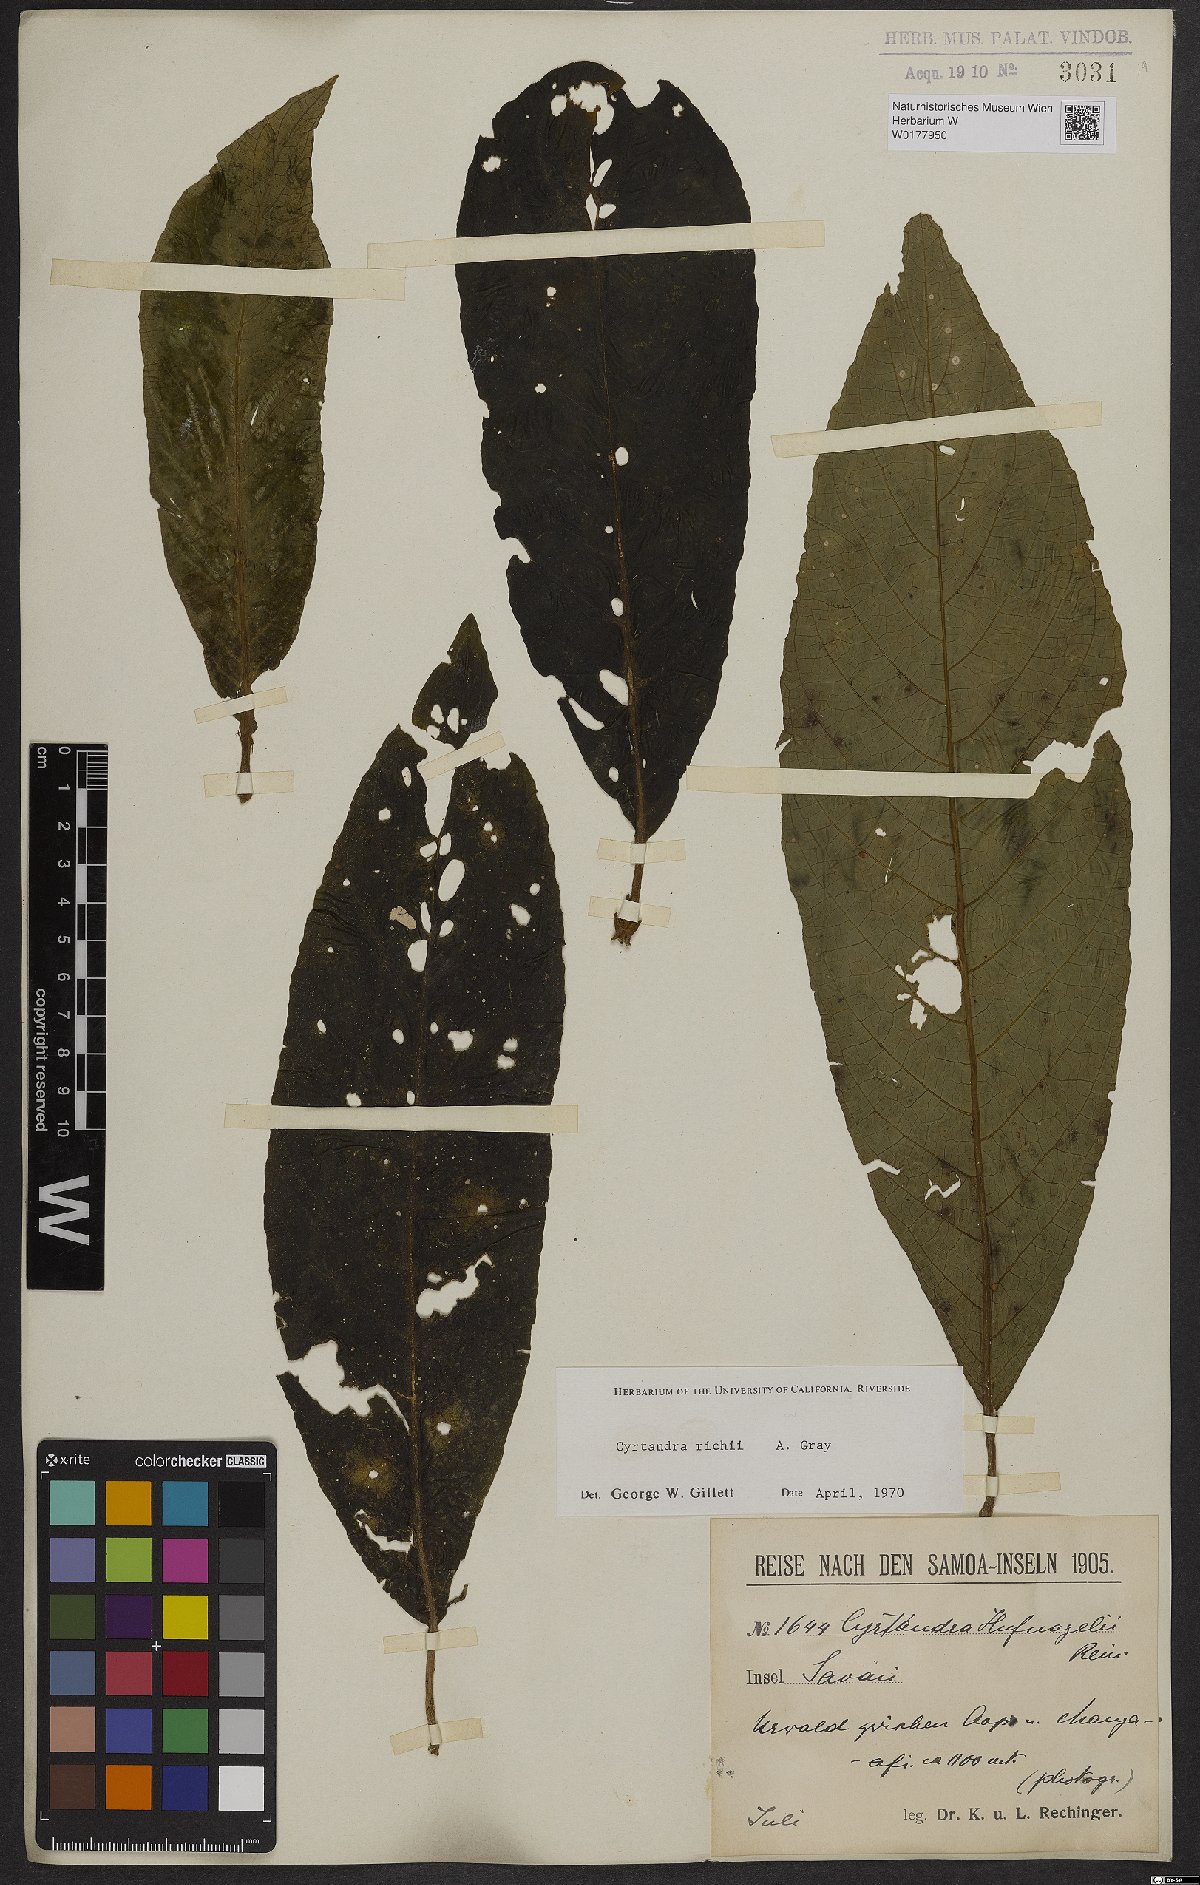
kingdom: Plantae
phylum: Tracheophyta
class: Magnoliopsida
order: Lamiales
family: Gesneriaceae
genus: Cyrtandra
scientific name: Cyrtandra richii
